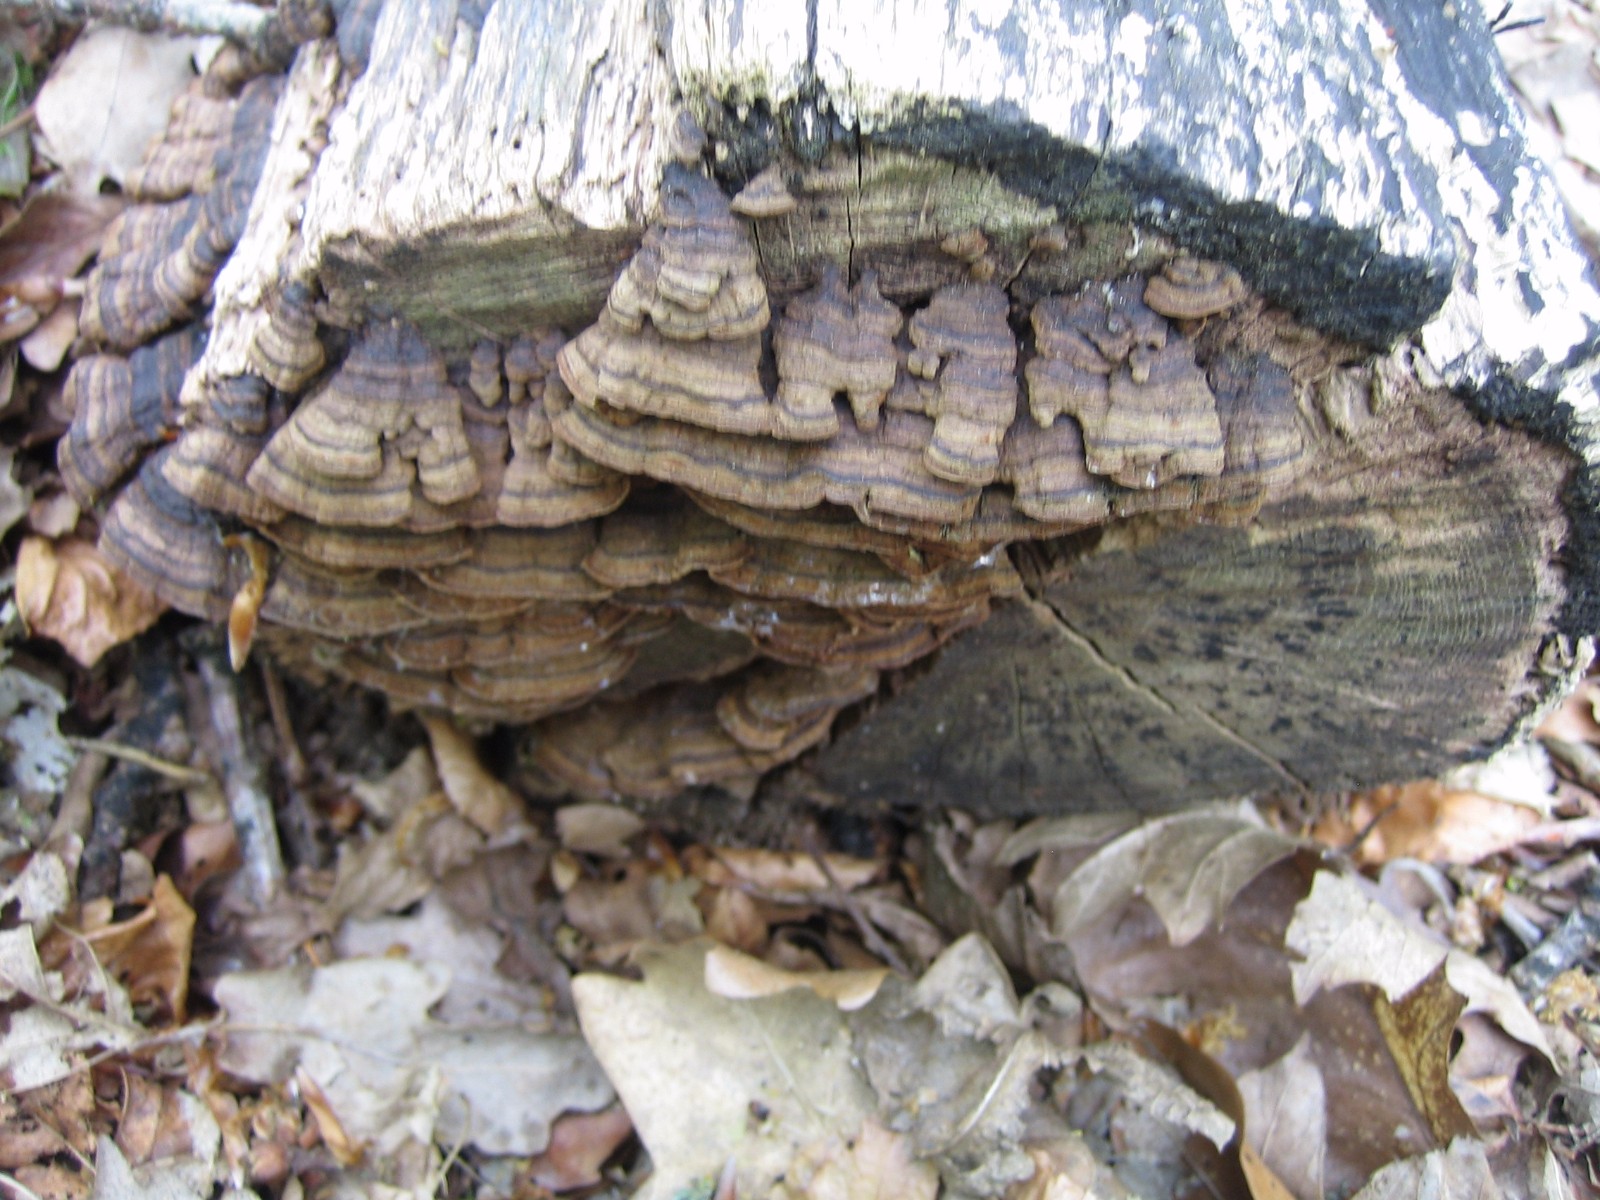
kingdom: Fungi
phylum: Basidiomycota
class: Agaricomycetes
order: Hymenochaetales
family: Hymenochaetaceae
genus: Hymenochaete
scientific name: Hymenochaete rubiginosa
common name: stiv ruslædersvamp
